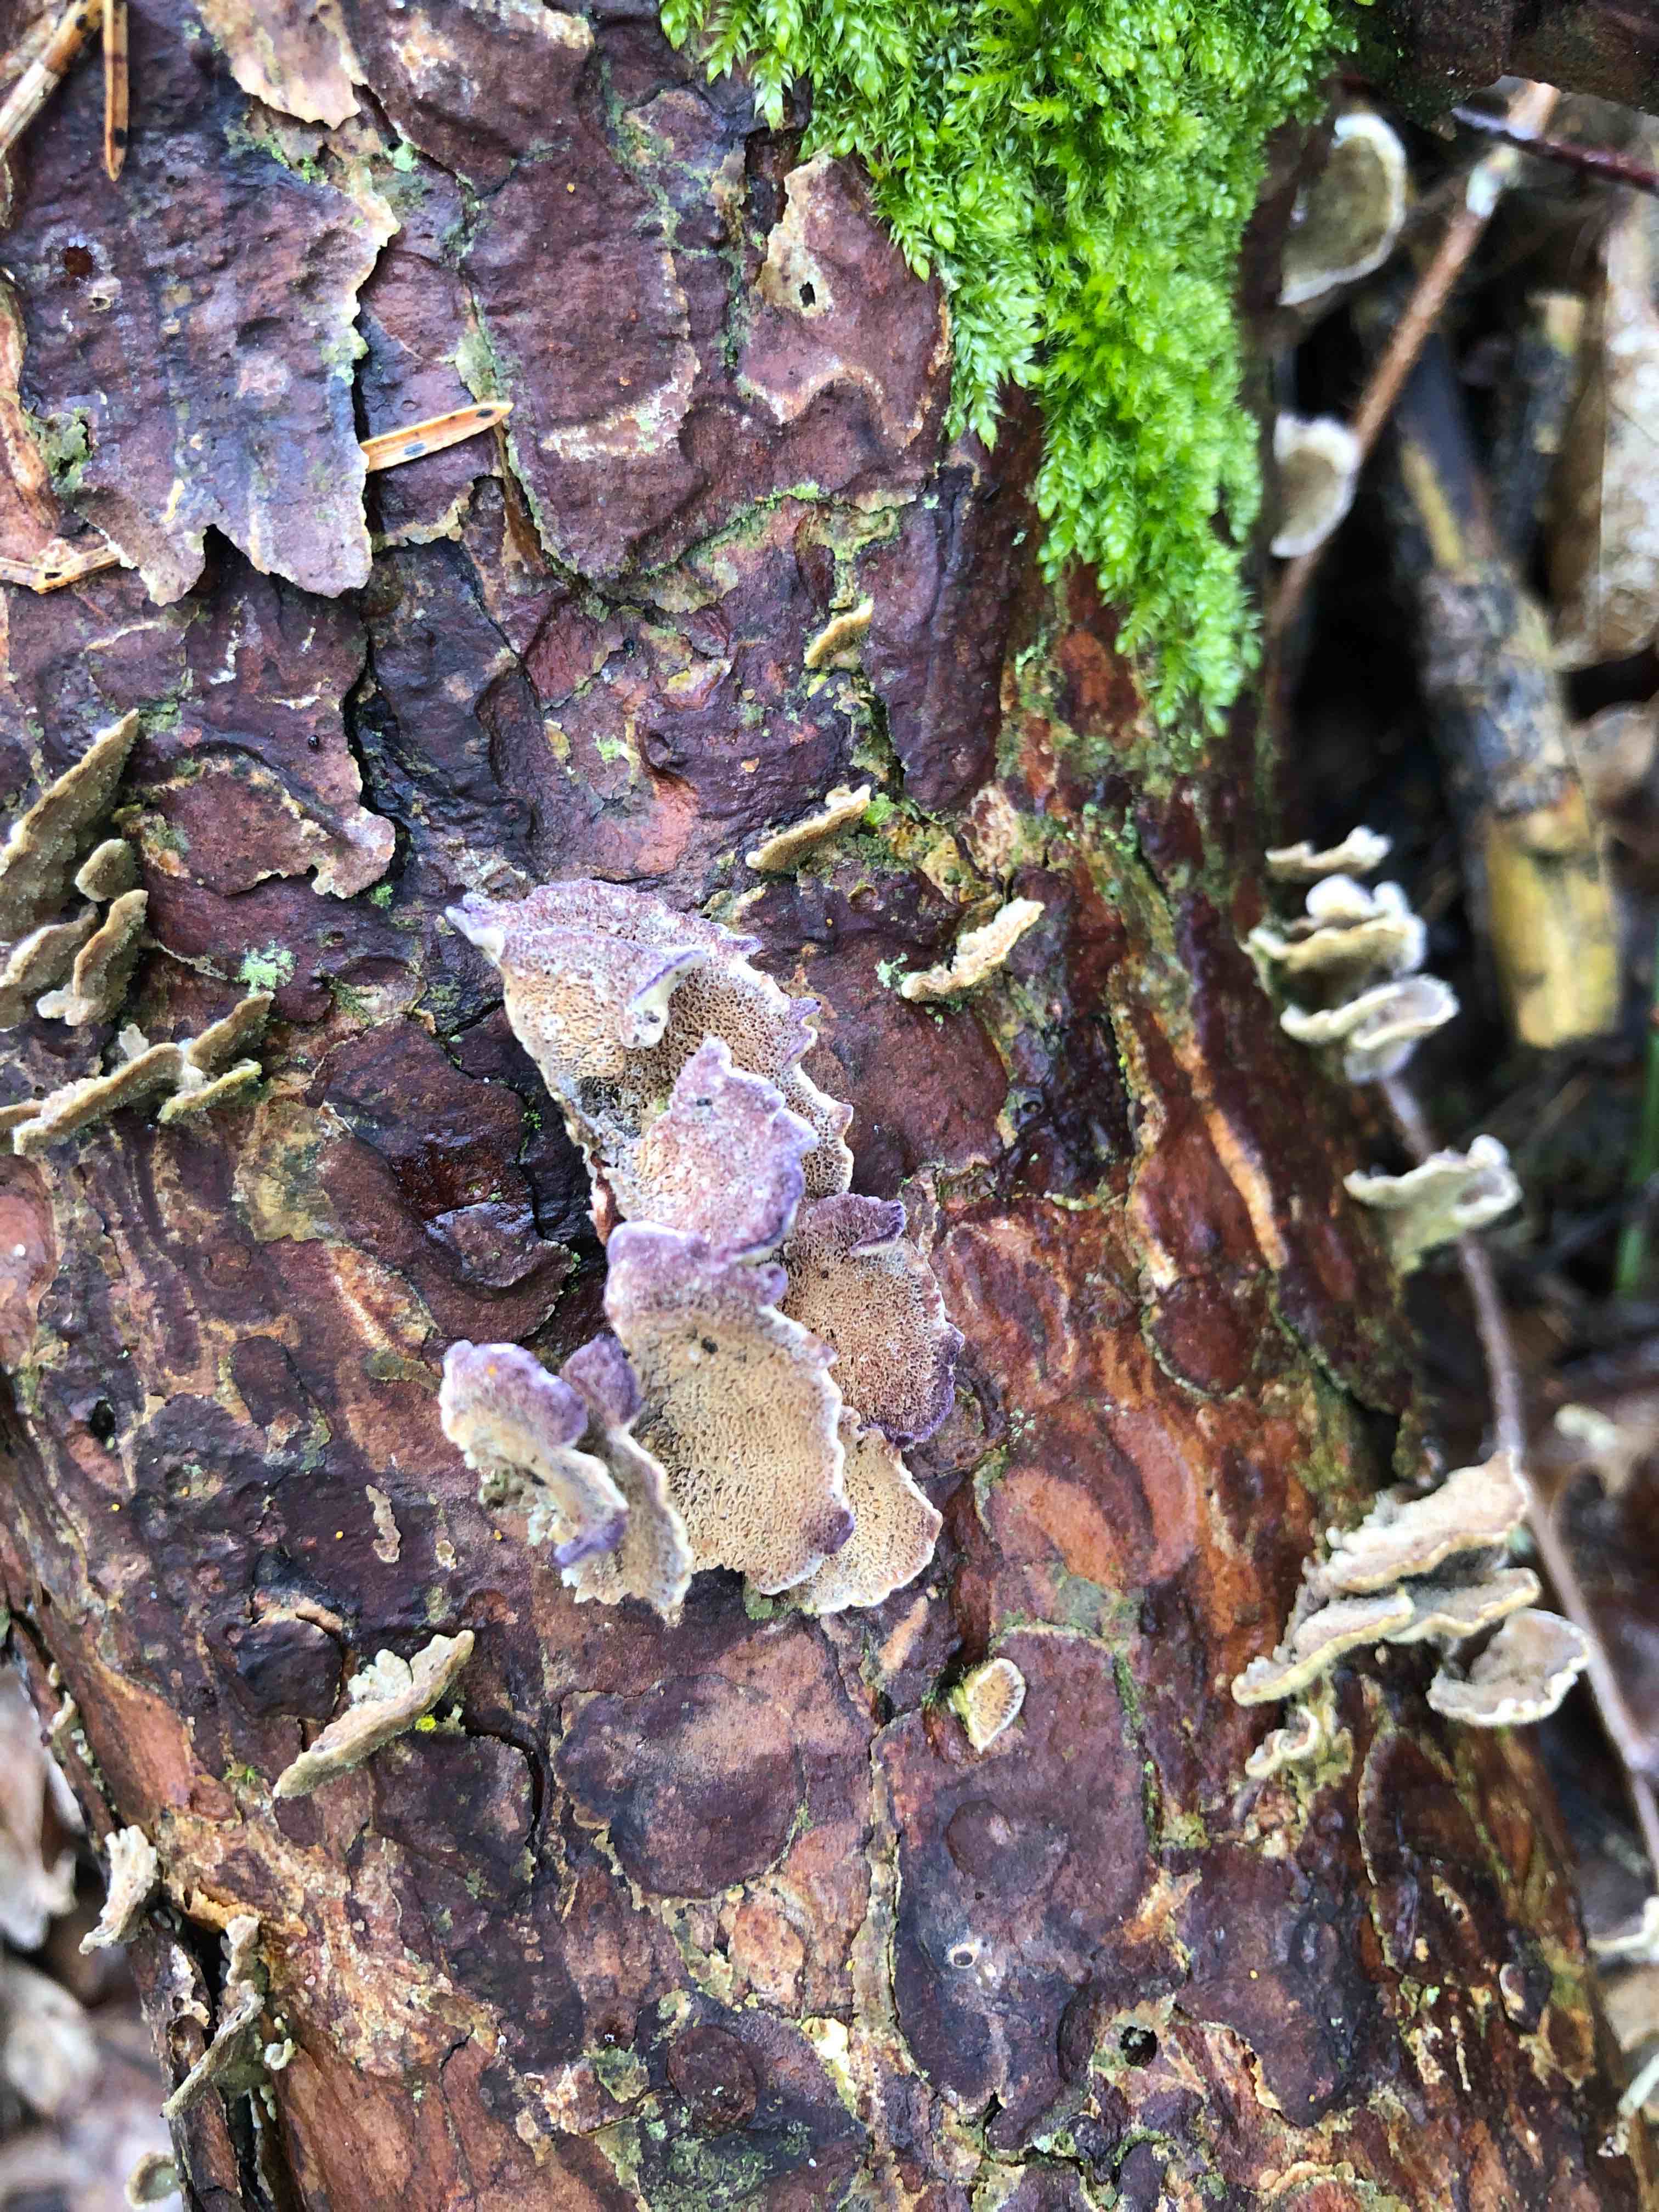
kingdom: Fungi
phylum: Basidiomycota
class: Agaricomycetes
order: Hymenochaetales
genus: Trichaptum
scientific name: Trichaptum abietinum
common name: almindelig violporesvamp
